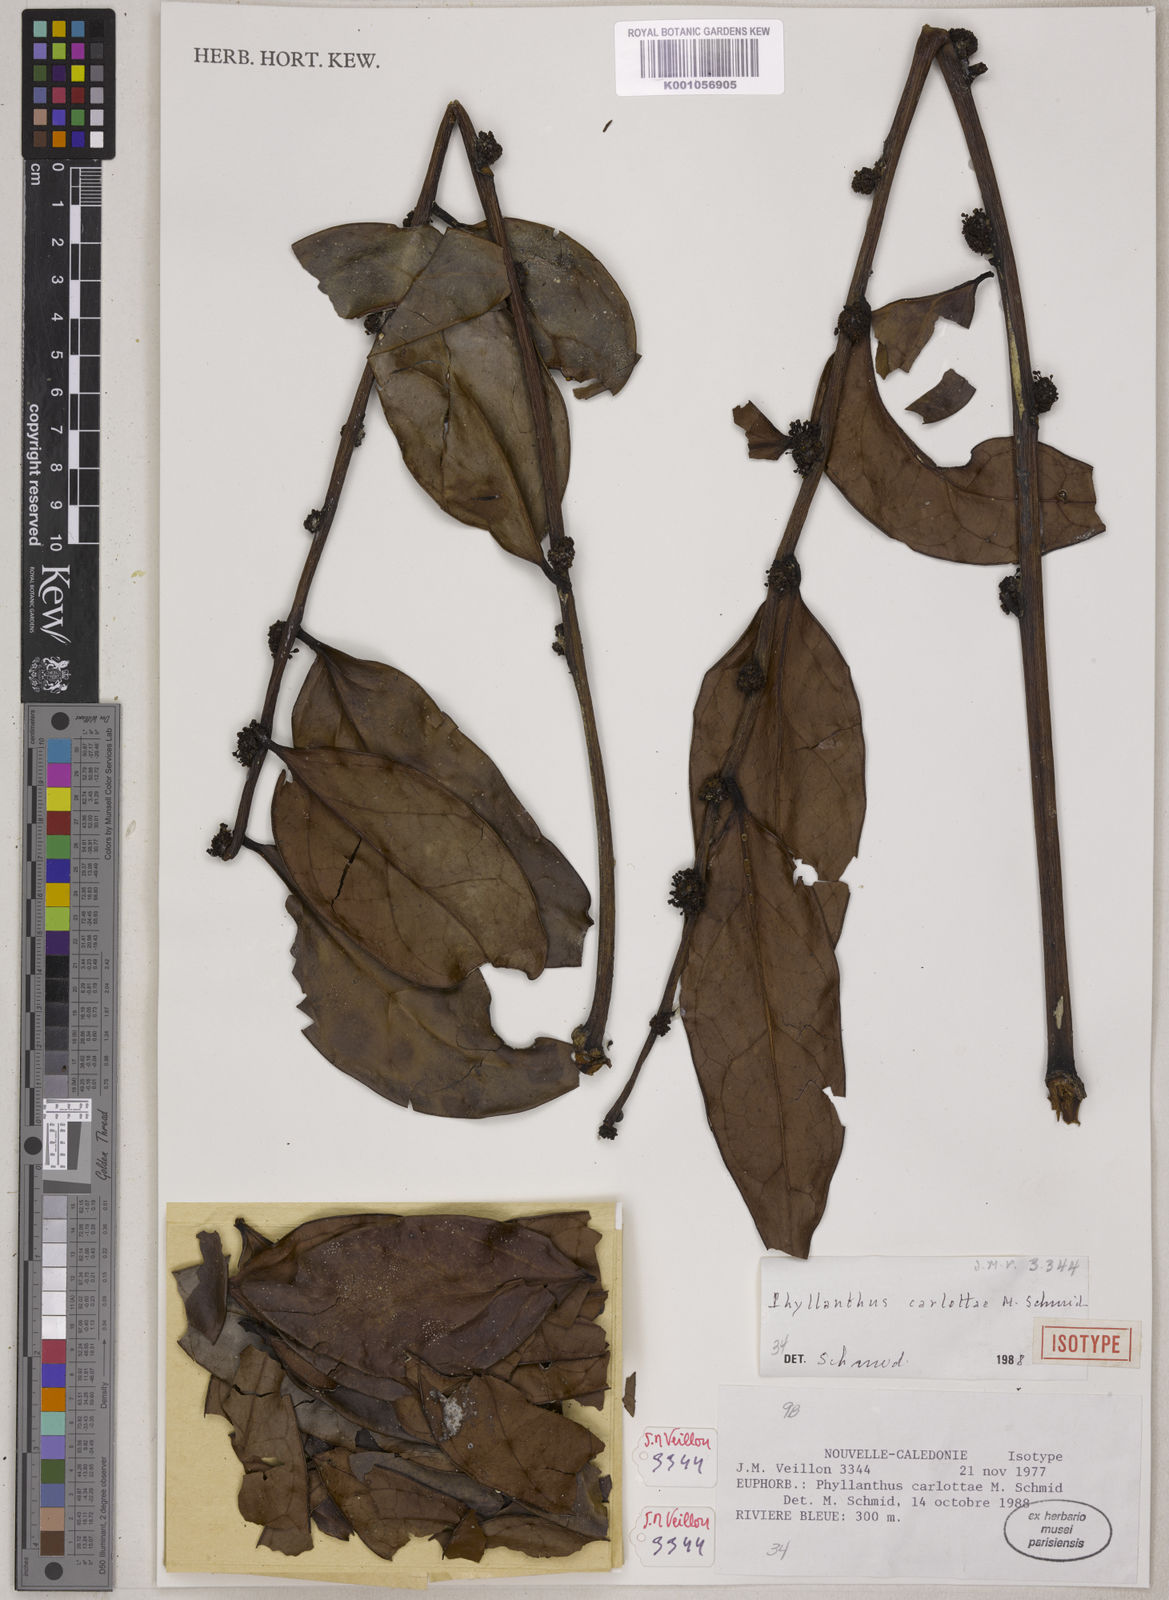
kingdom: Plantae
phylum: Tracheophyta
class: Magnoliopsida
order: Malpighiales
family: Phyllanthaceae
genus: Phyllanthus
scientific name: Phyllanthus carlottae
